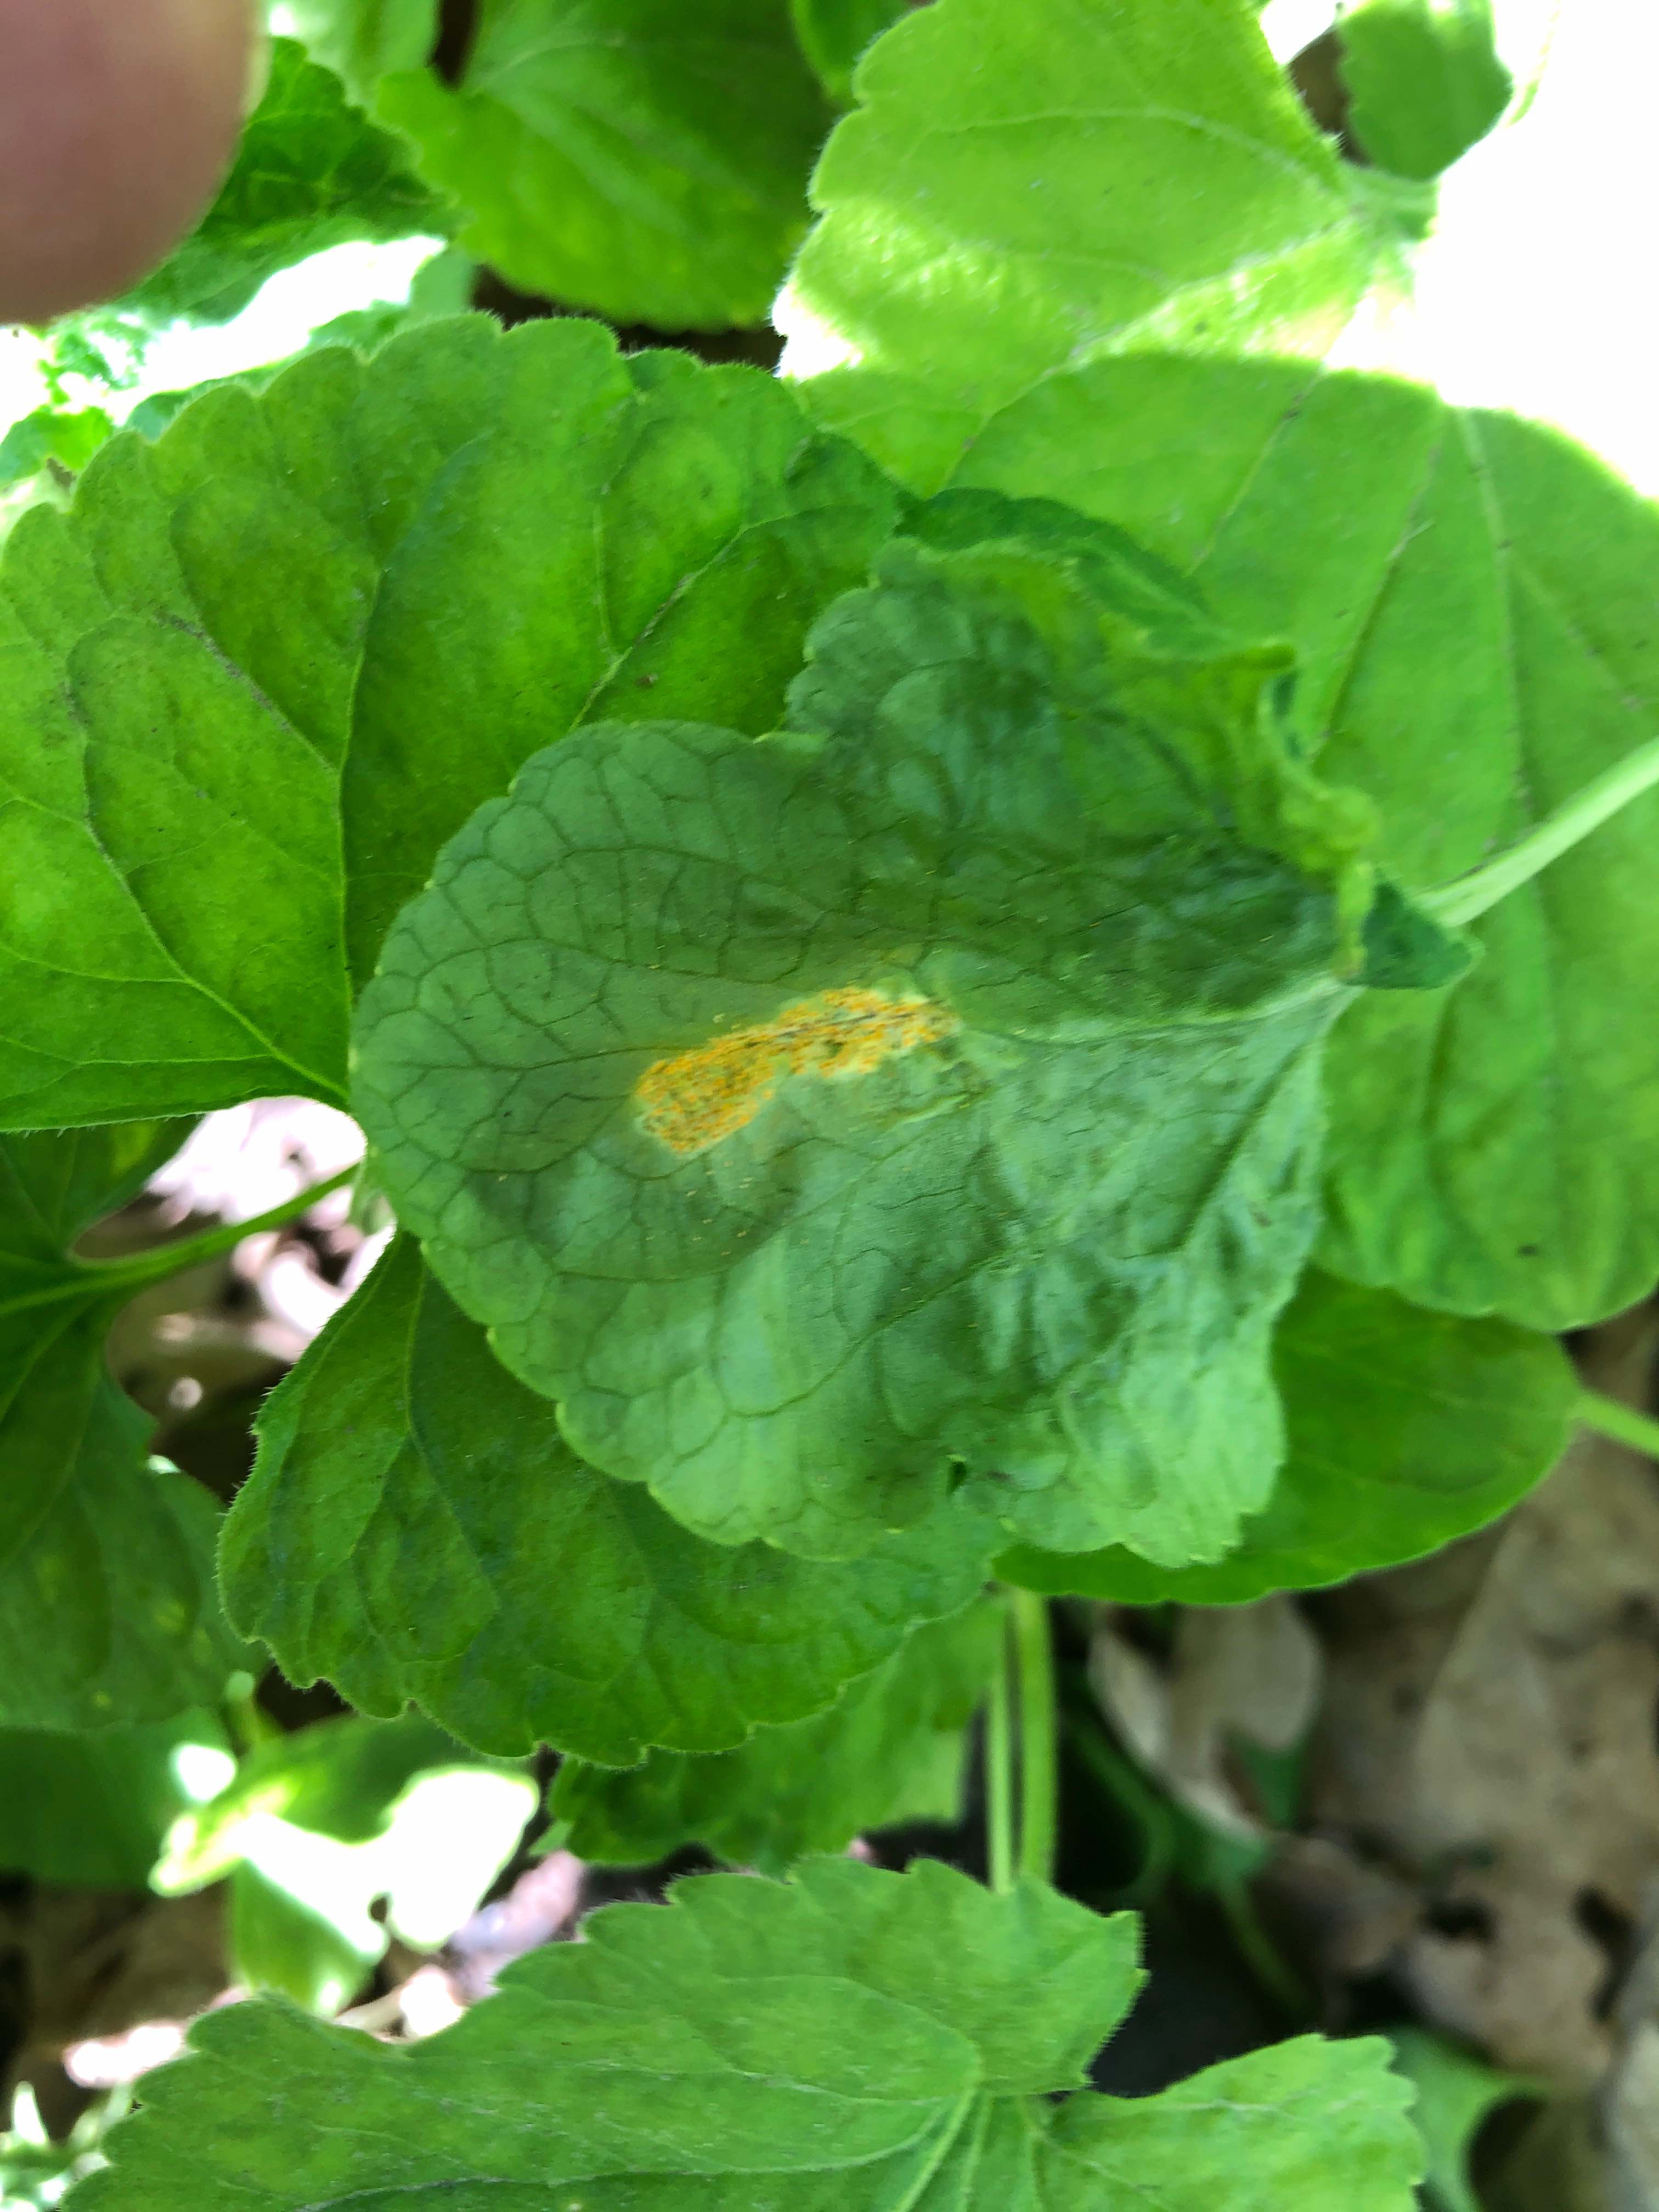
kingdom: Fungi
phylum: Basidiomycota
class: Pucciniomycetes
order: Pucciniales
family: Pucciniaceae
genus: Puccinia
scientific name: Puccinia violae
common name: viol-tvecellerust
